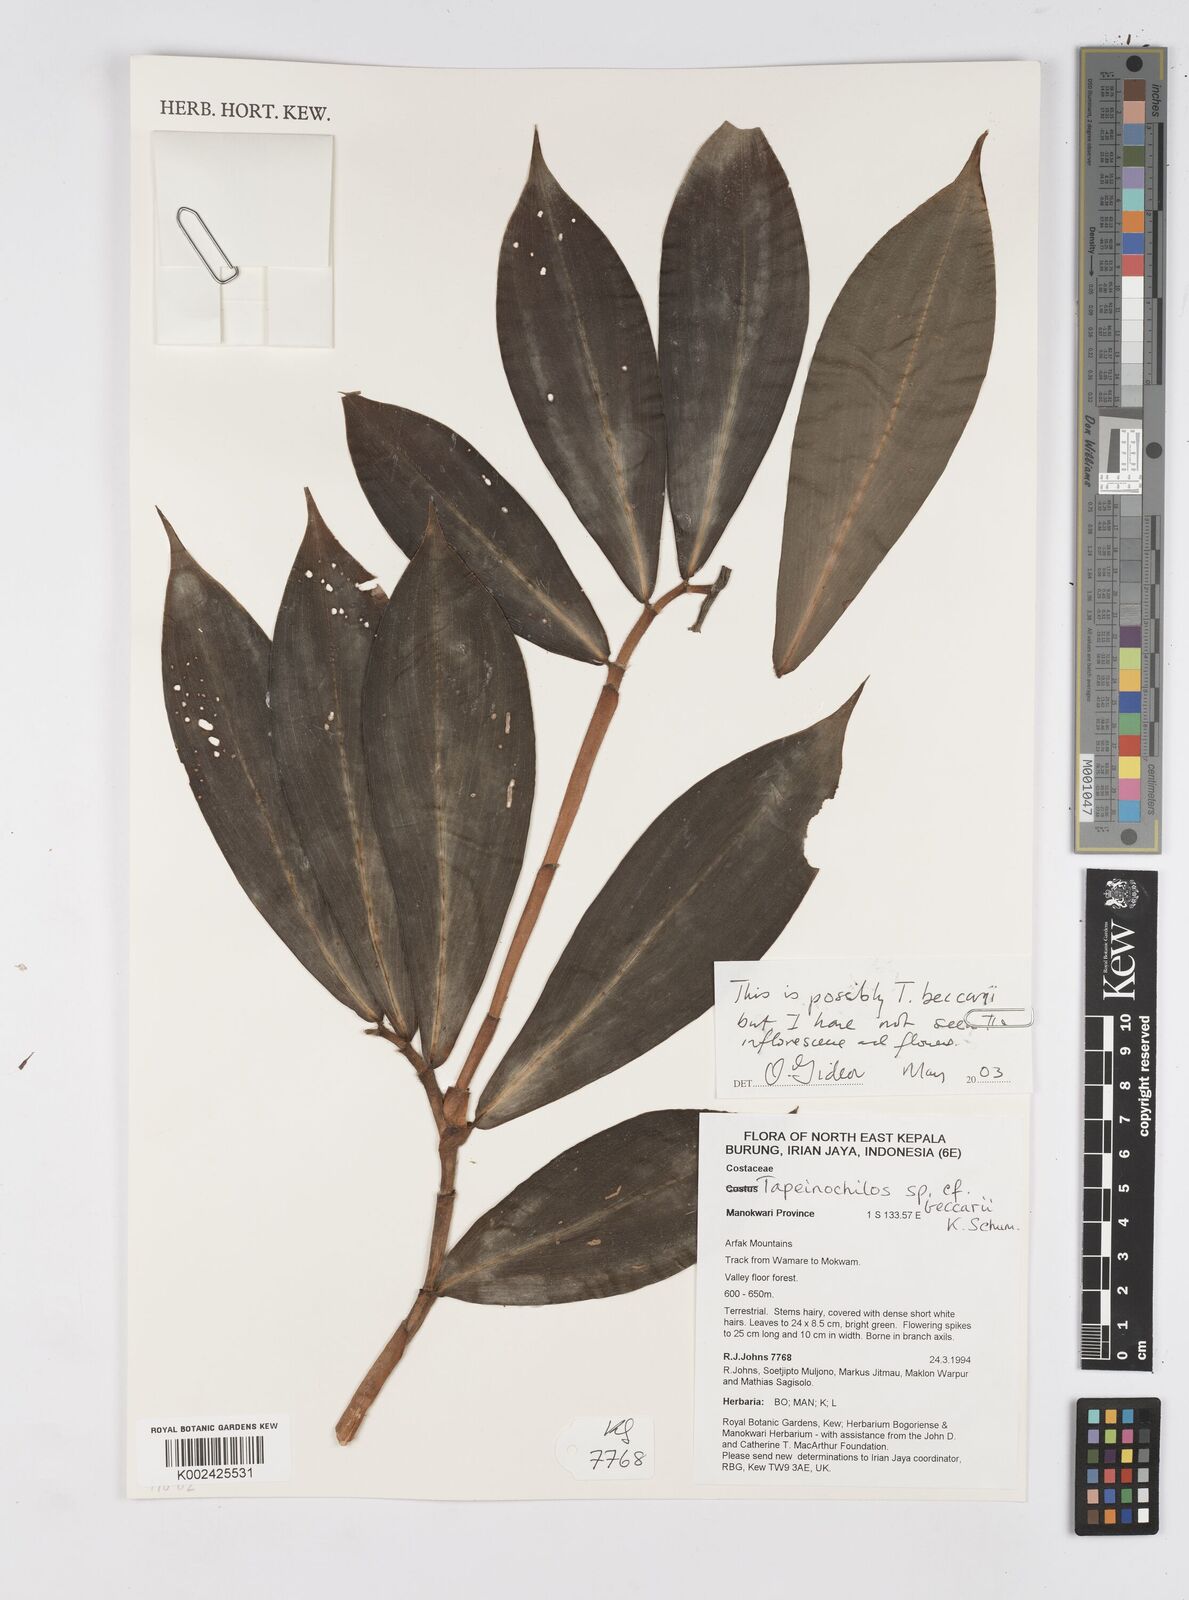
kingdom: Plantae
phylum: Tracheophyta
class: Liliopsida
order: Zingiberales
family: Costaceae
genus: Tapeinochilos
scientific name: Tapeinochilos beccarii
